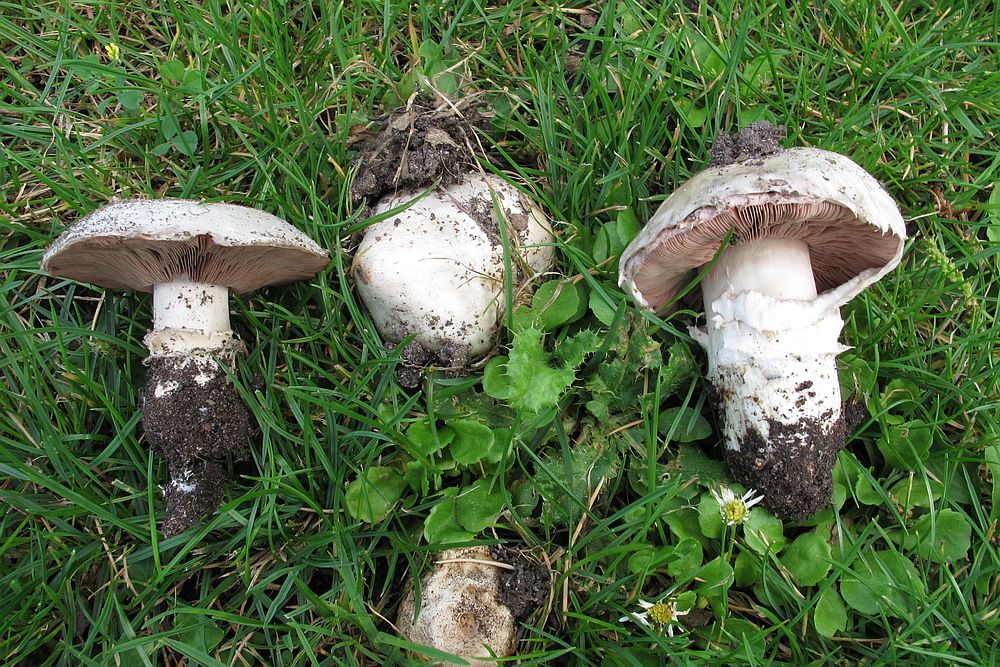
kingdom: Fungi
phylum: Basidiomycota
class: Agaricomycetes
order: Agaricales
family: Agaricaceae
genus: Agaricus
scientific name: Agaricus bitorquis
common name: vej-champignon
